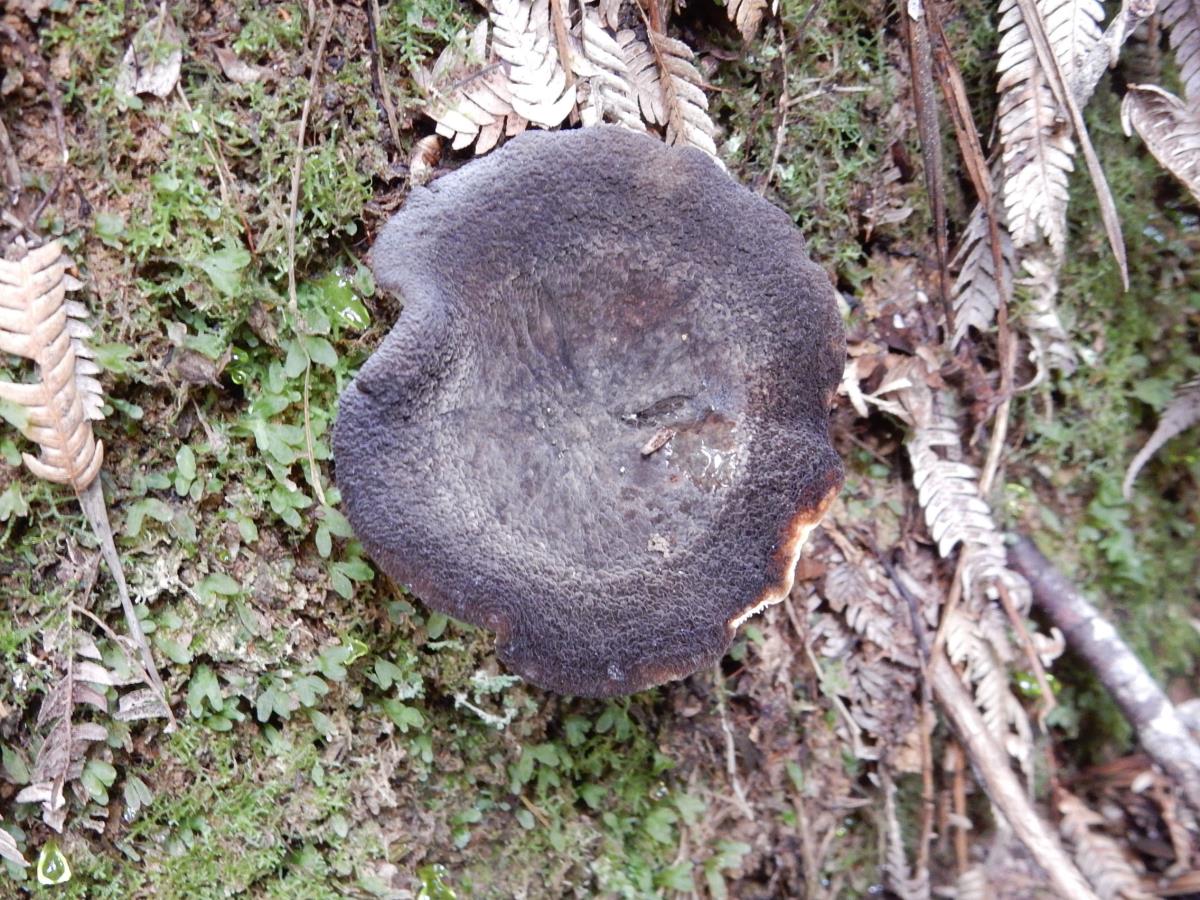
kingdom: Fungi
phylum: Basidiomycota
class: Agaricomycetes
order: Russulales
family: Russulaceae
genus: Lactifluus
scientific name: Lactifluus sepiaceus
